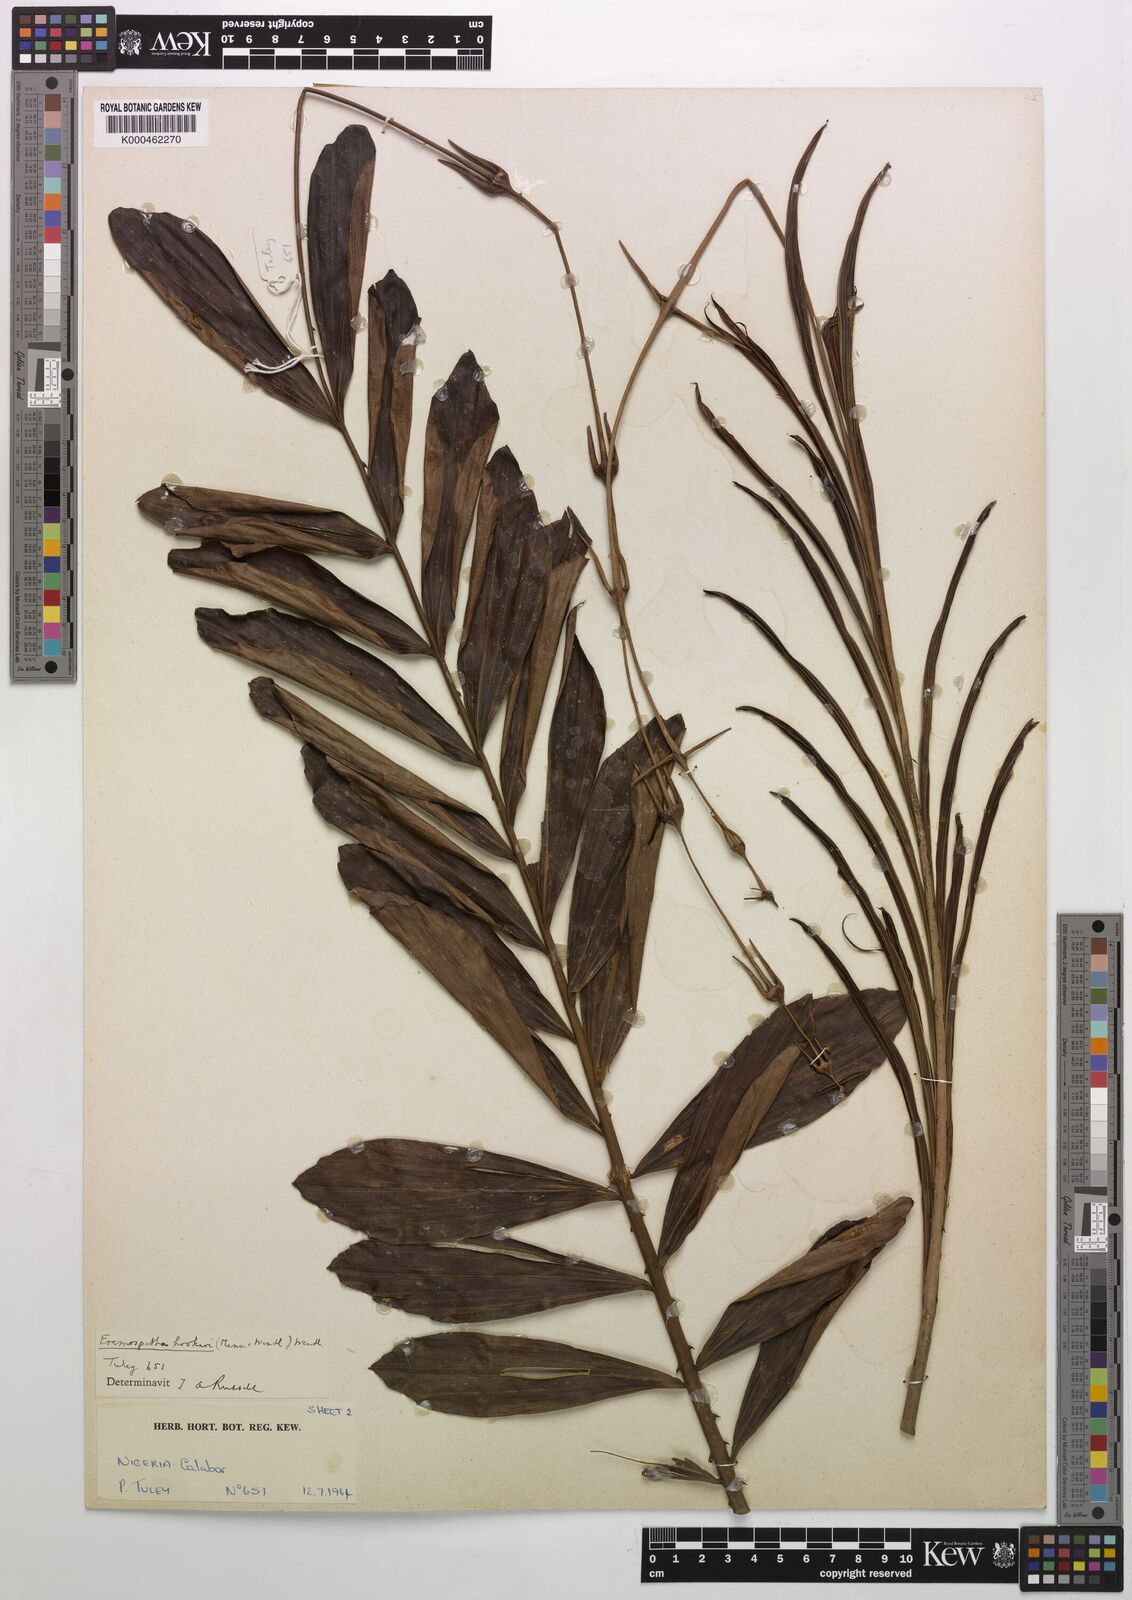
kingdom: Plantae
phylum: Tracheophyta
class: Liliopsida
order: Arecales
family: Arecaceae
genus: Eremospatha
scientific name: Eremospatha hookeri
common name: Rattan
